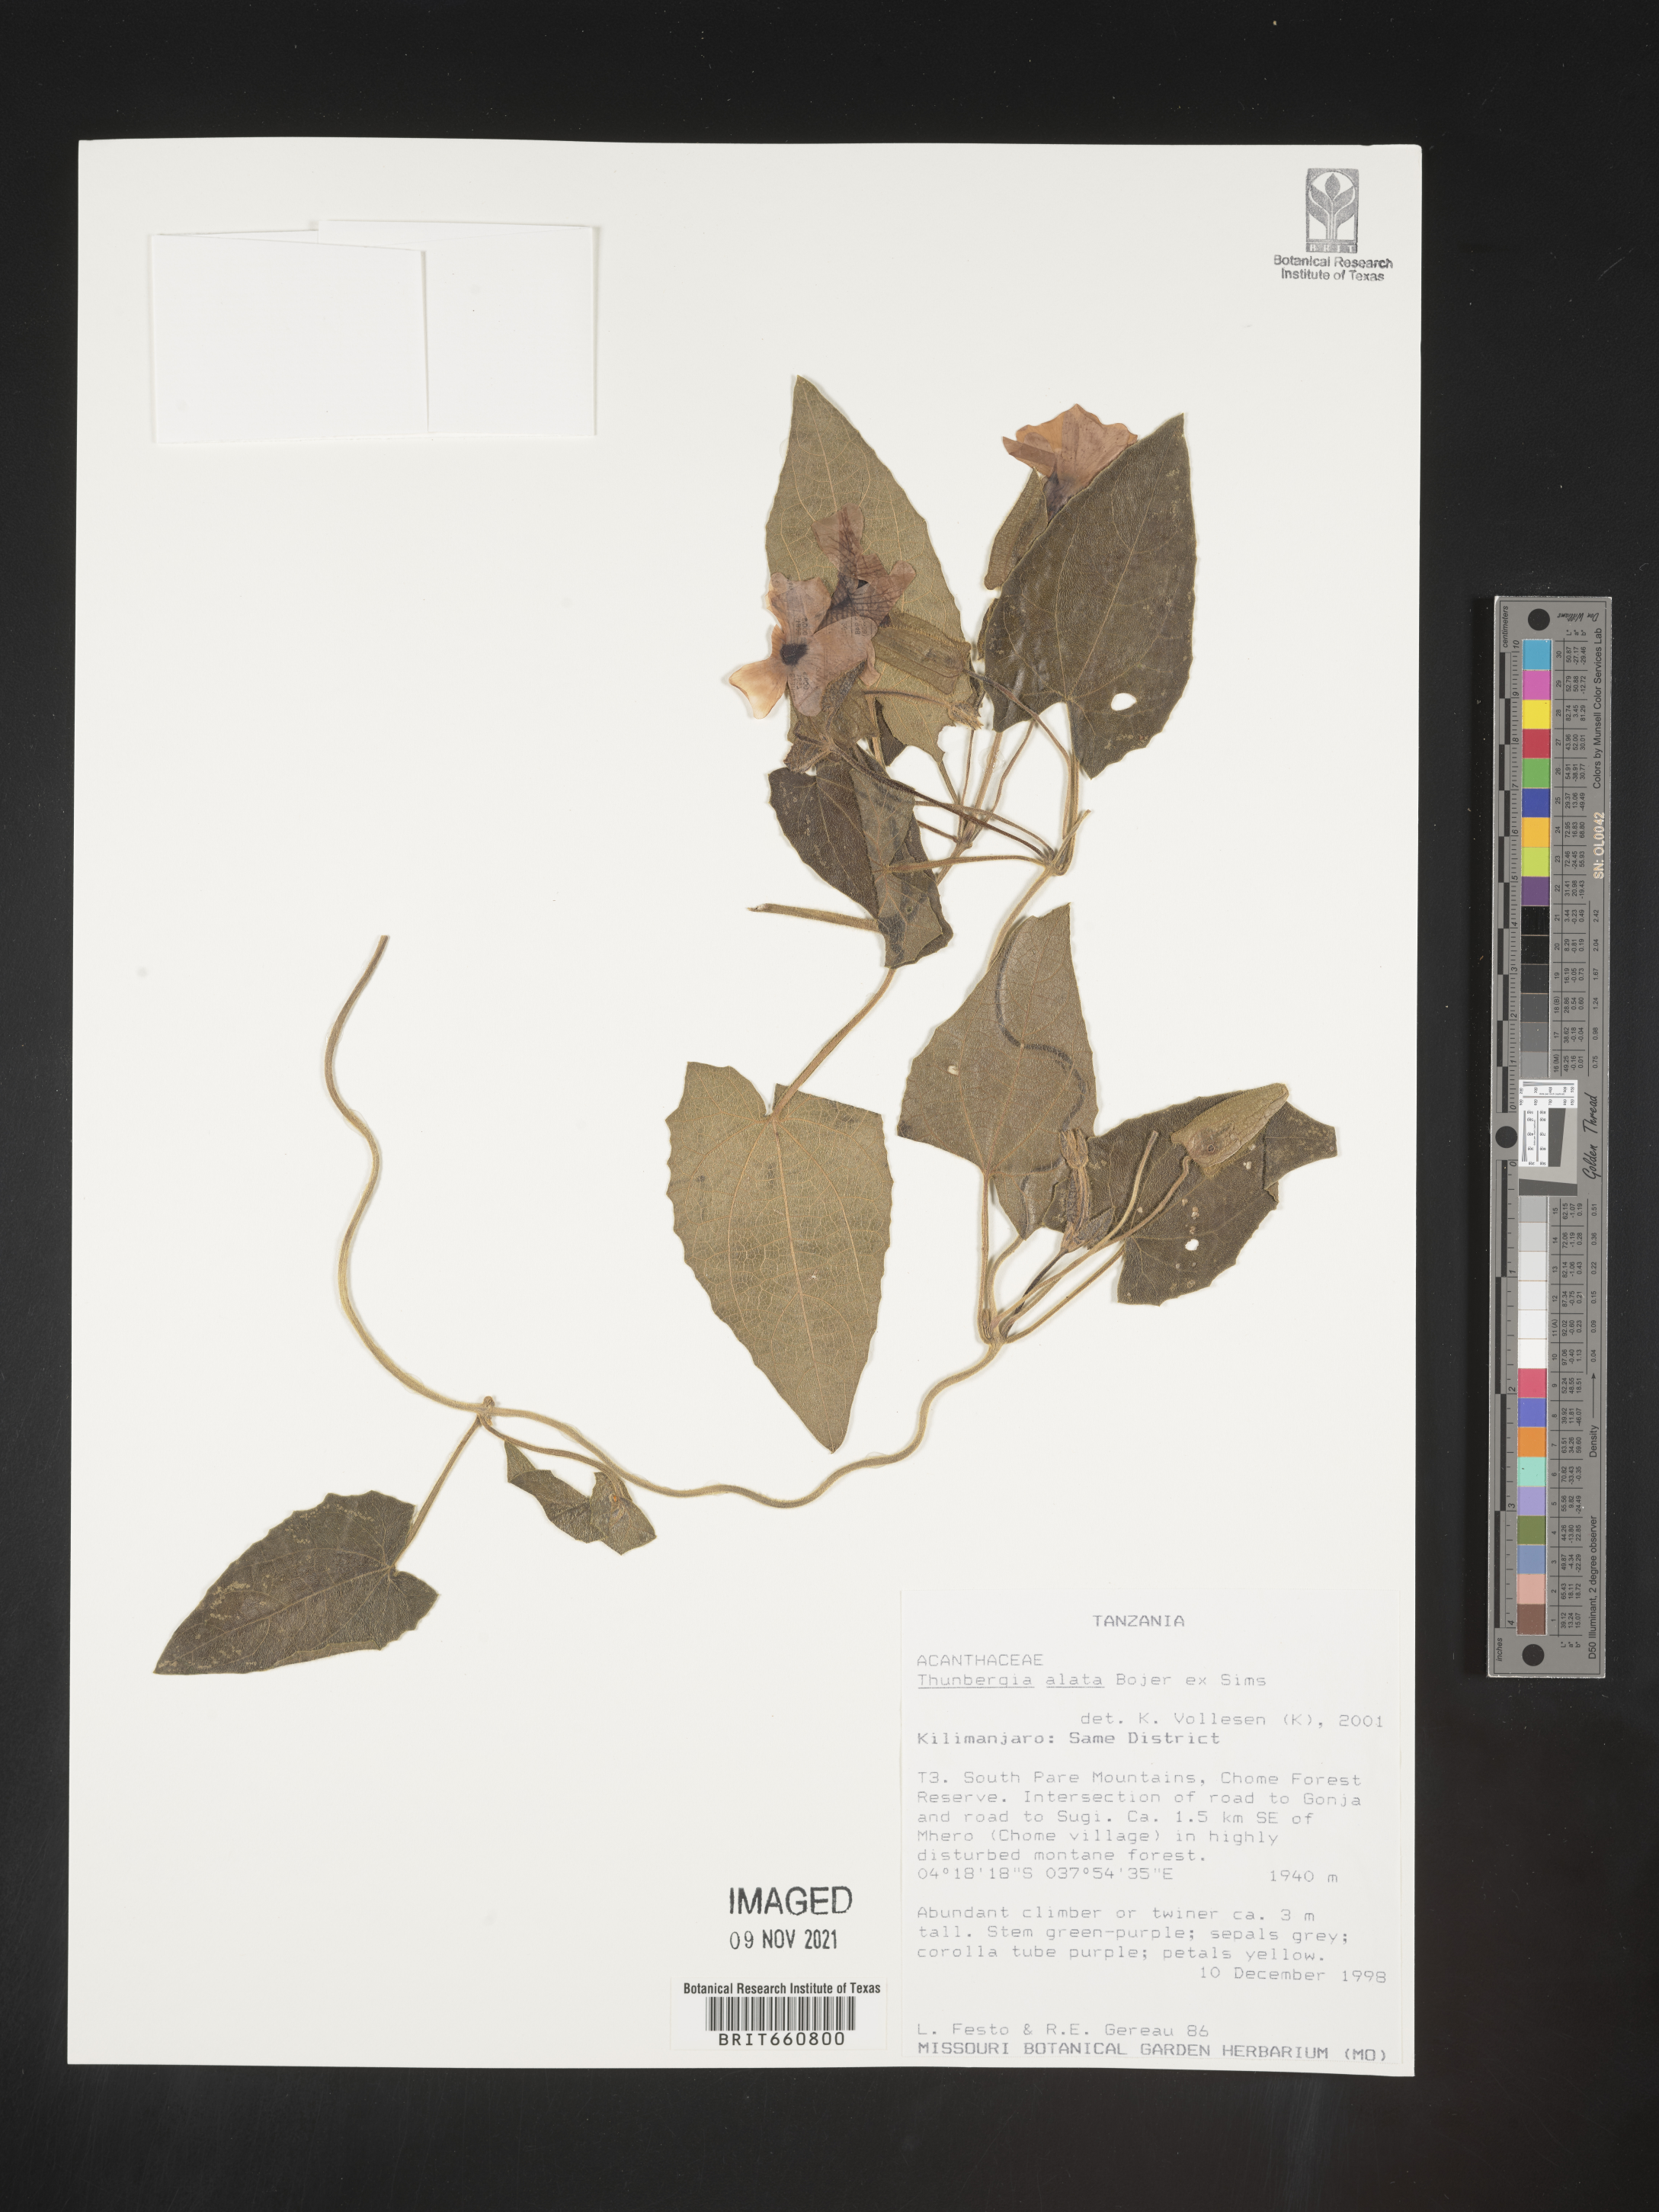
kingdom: Plantae
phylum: Tracheophyta
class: Magnoliopsida
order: Lamiales
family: Acanthaceae
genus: Thunbergia
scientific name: Thunbergia
